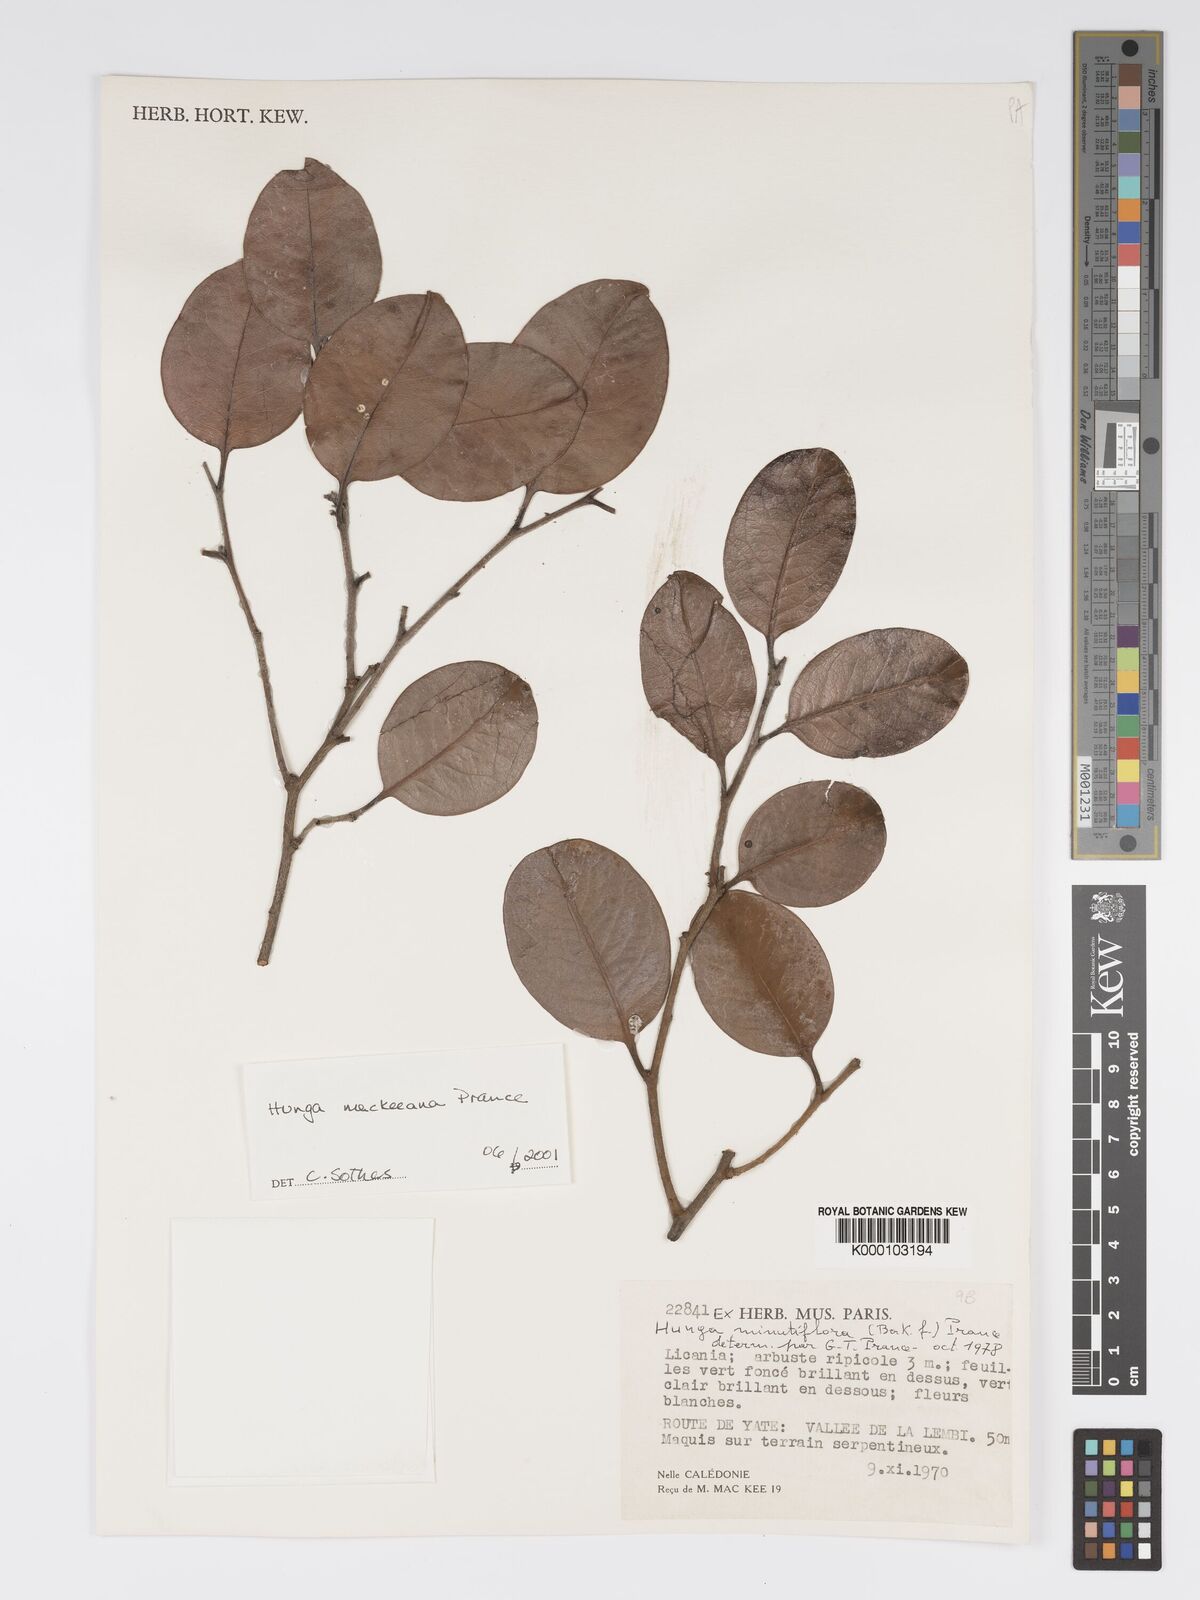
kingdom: Plantae
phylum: Tracheophyta
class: Magnoliopsida
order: Malpighiales
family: Chrysobalanaceae
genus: Hunga
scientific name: Hunga mackeeana
